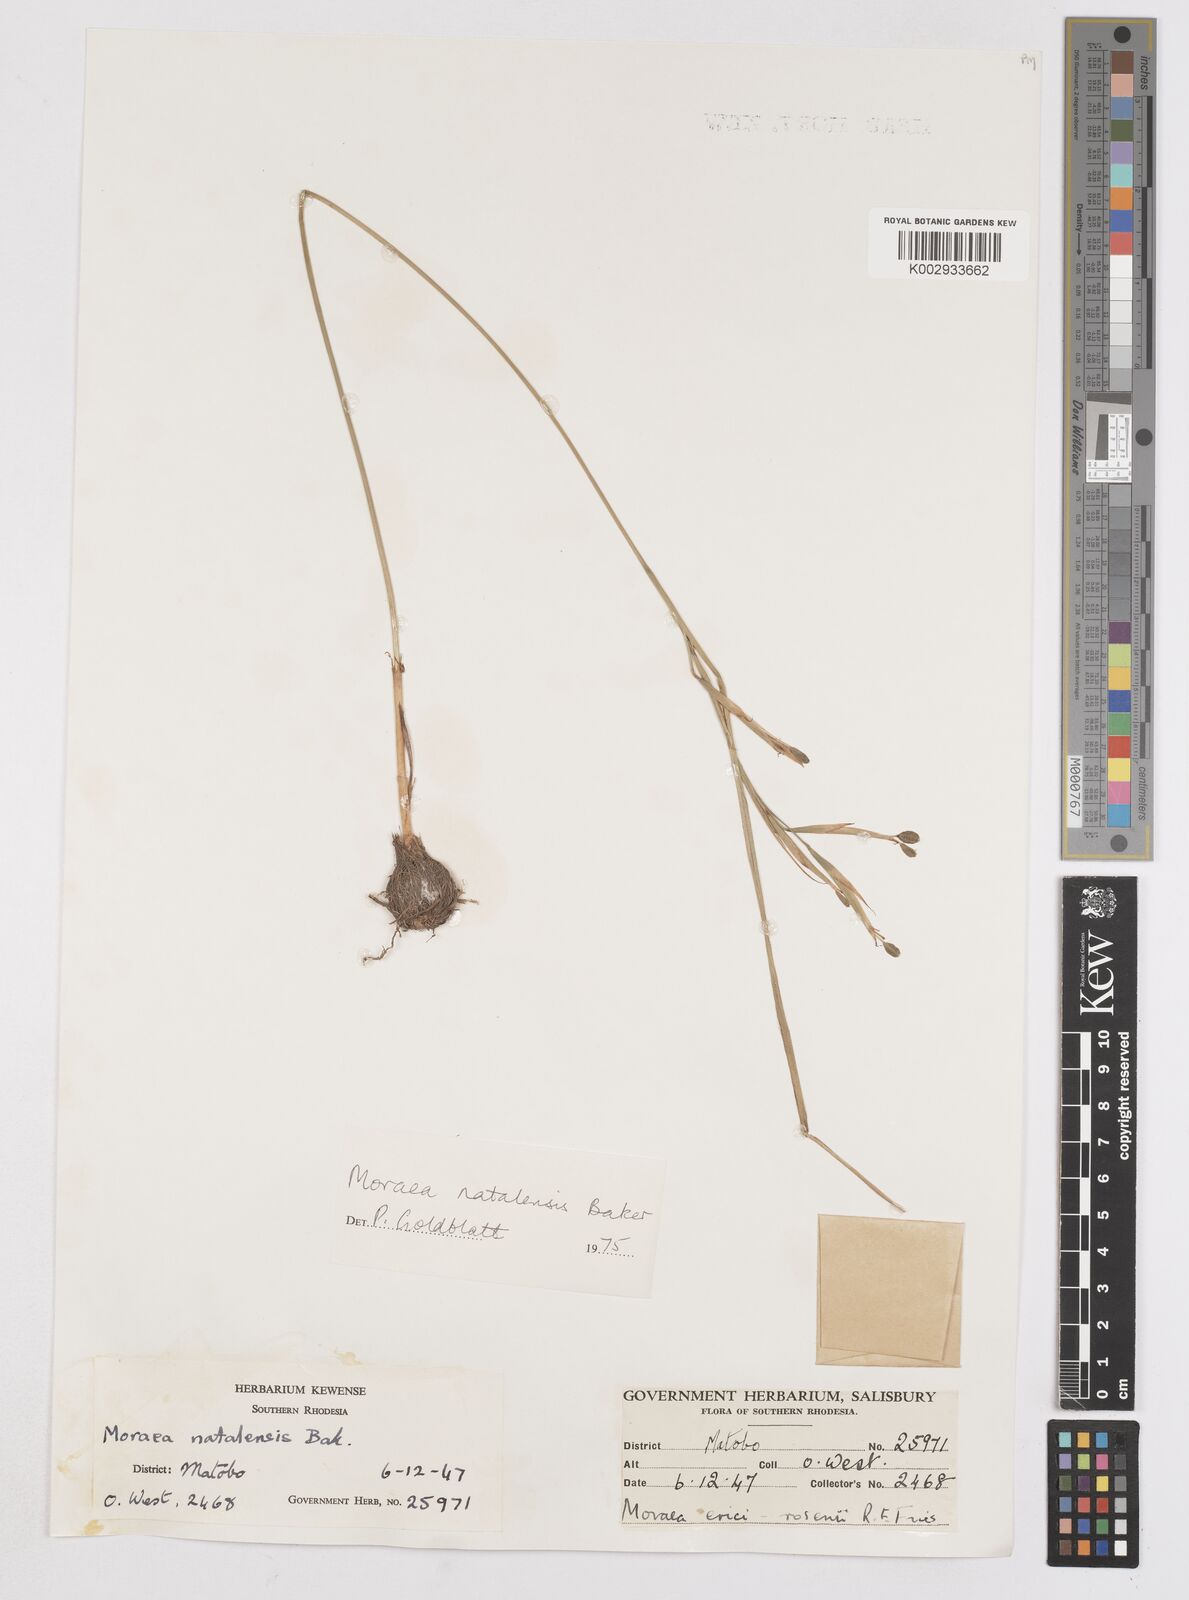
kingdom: Plantae
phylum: Tracheophyta
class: Liliopsida
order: Asparagales
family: Iridaceae
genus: Moraea
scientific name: Moraea natalensis
